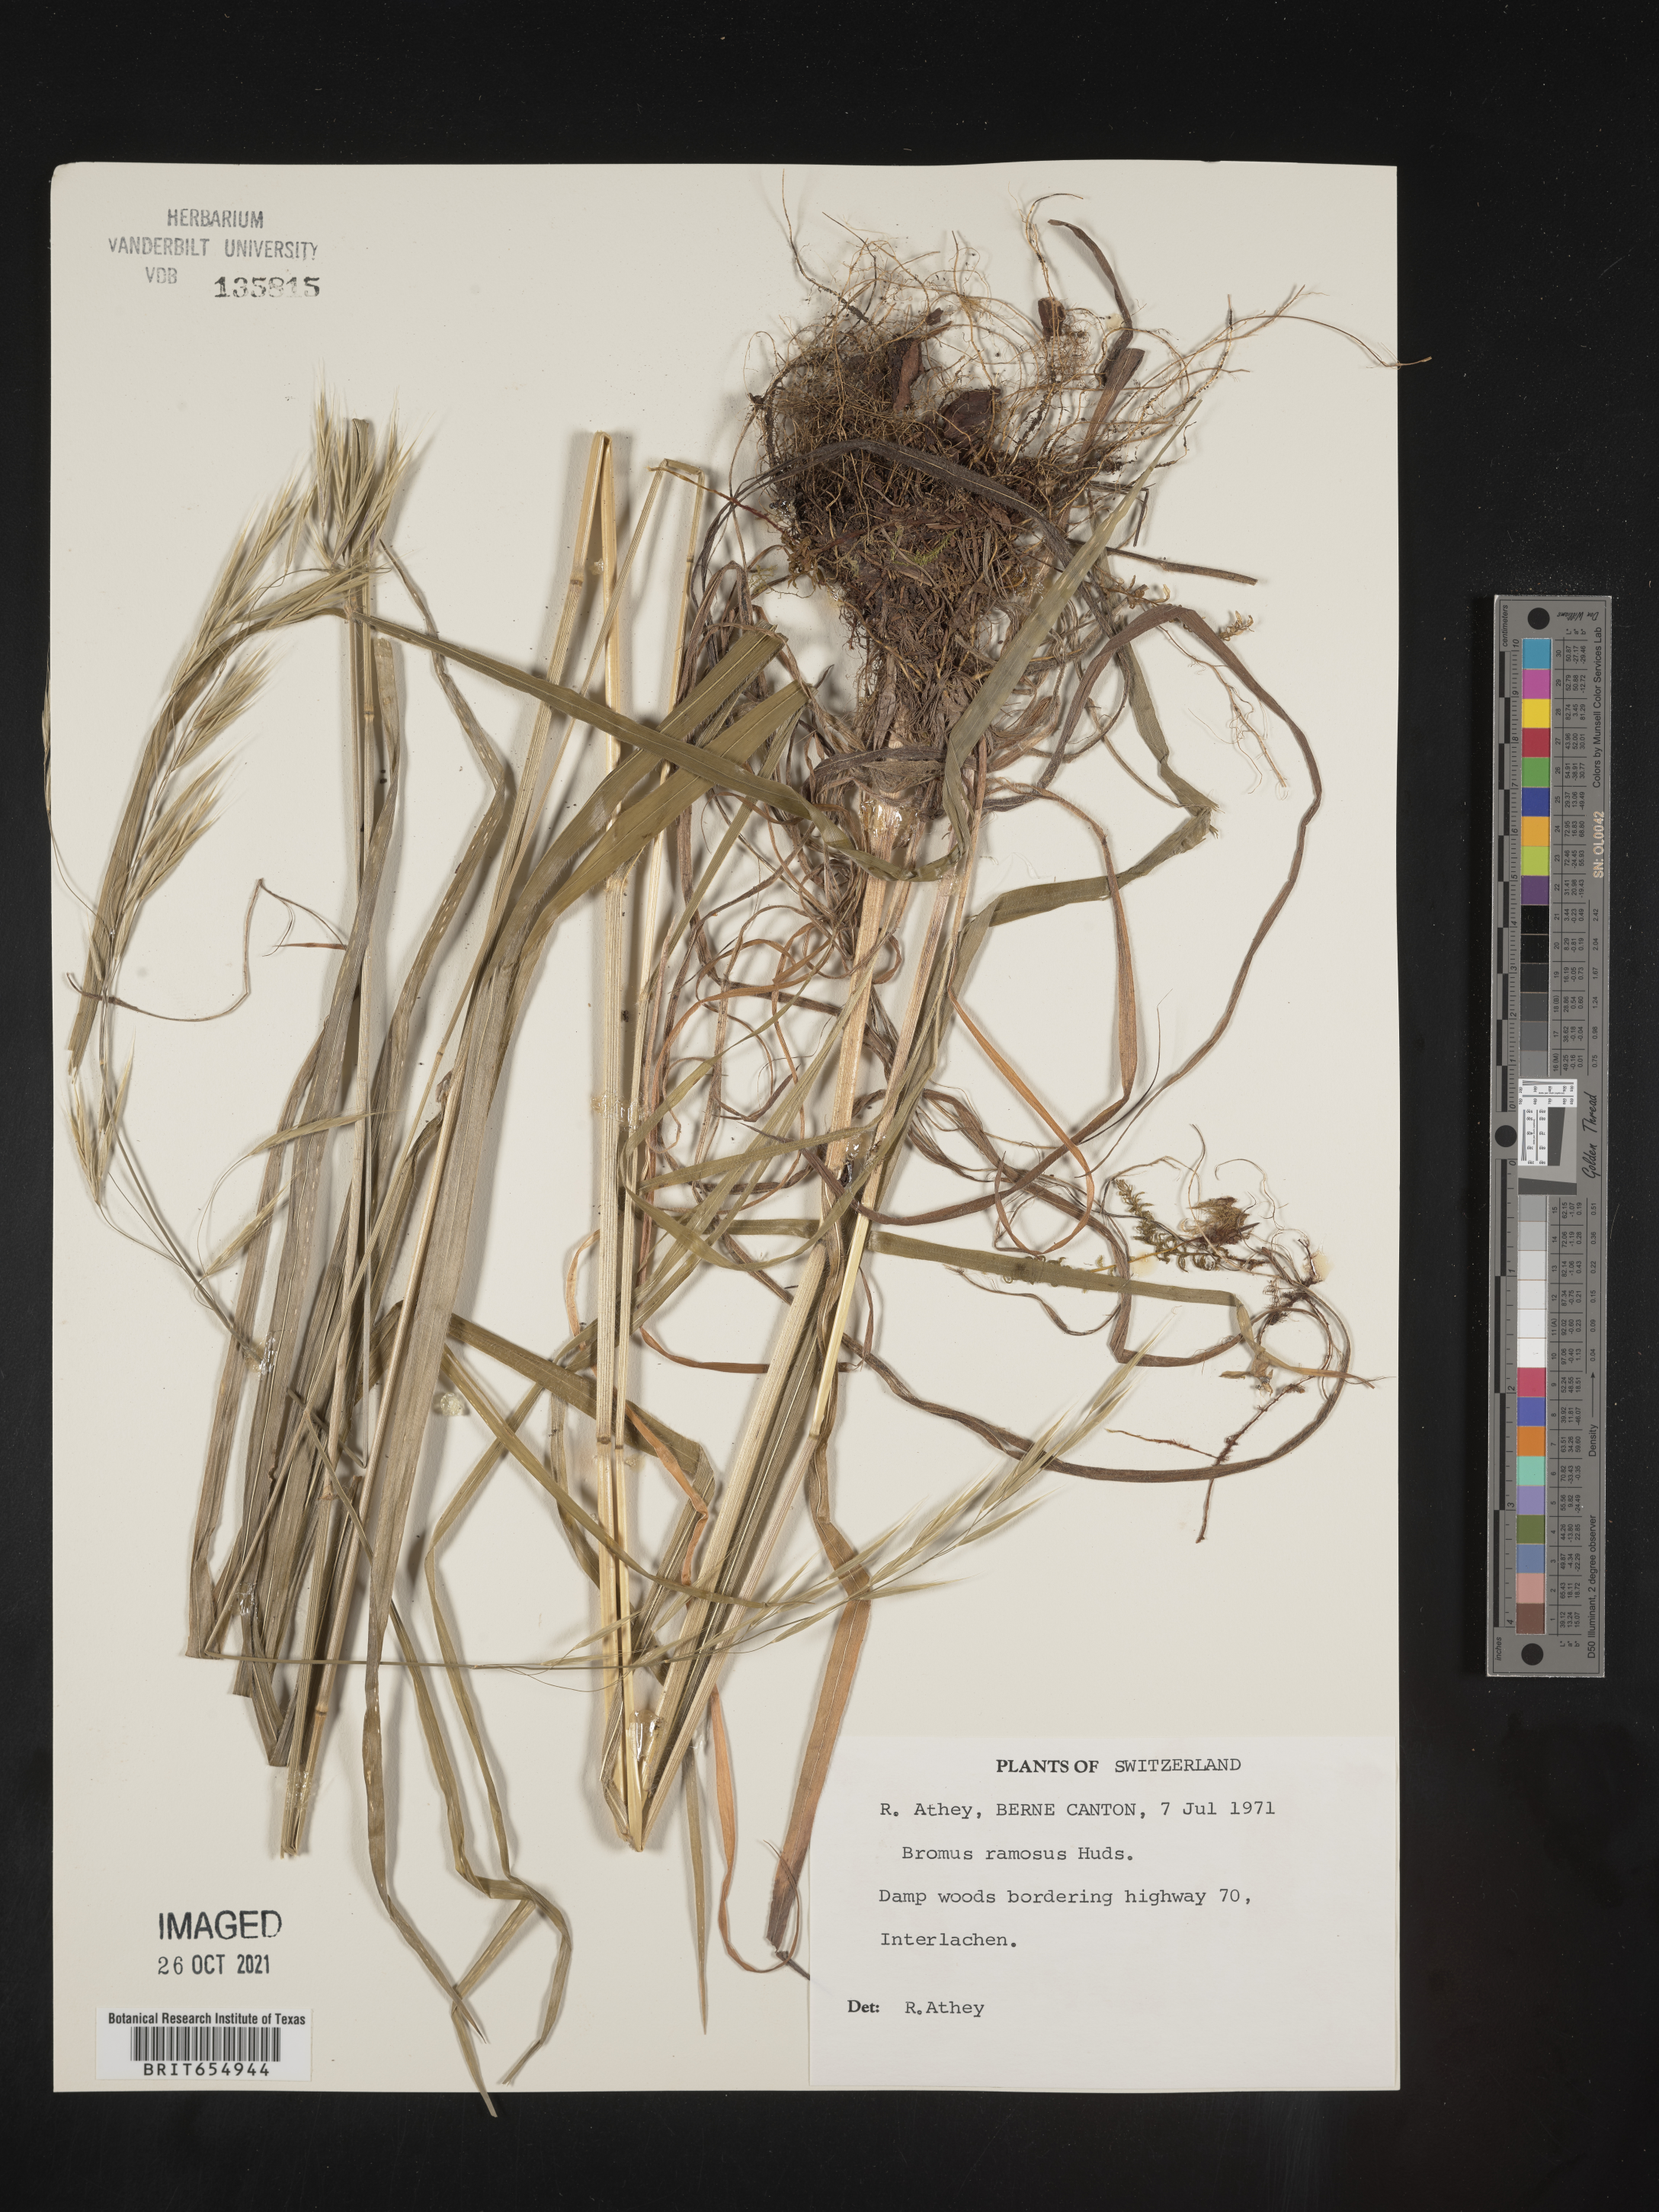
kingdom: Plantae
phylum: Tracheophyta
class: Liliopsida
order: Poales
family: Poaceae
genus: Bromus
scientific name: Bromus
